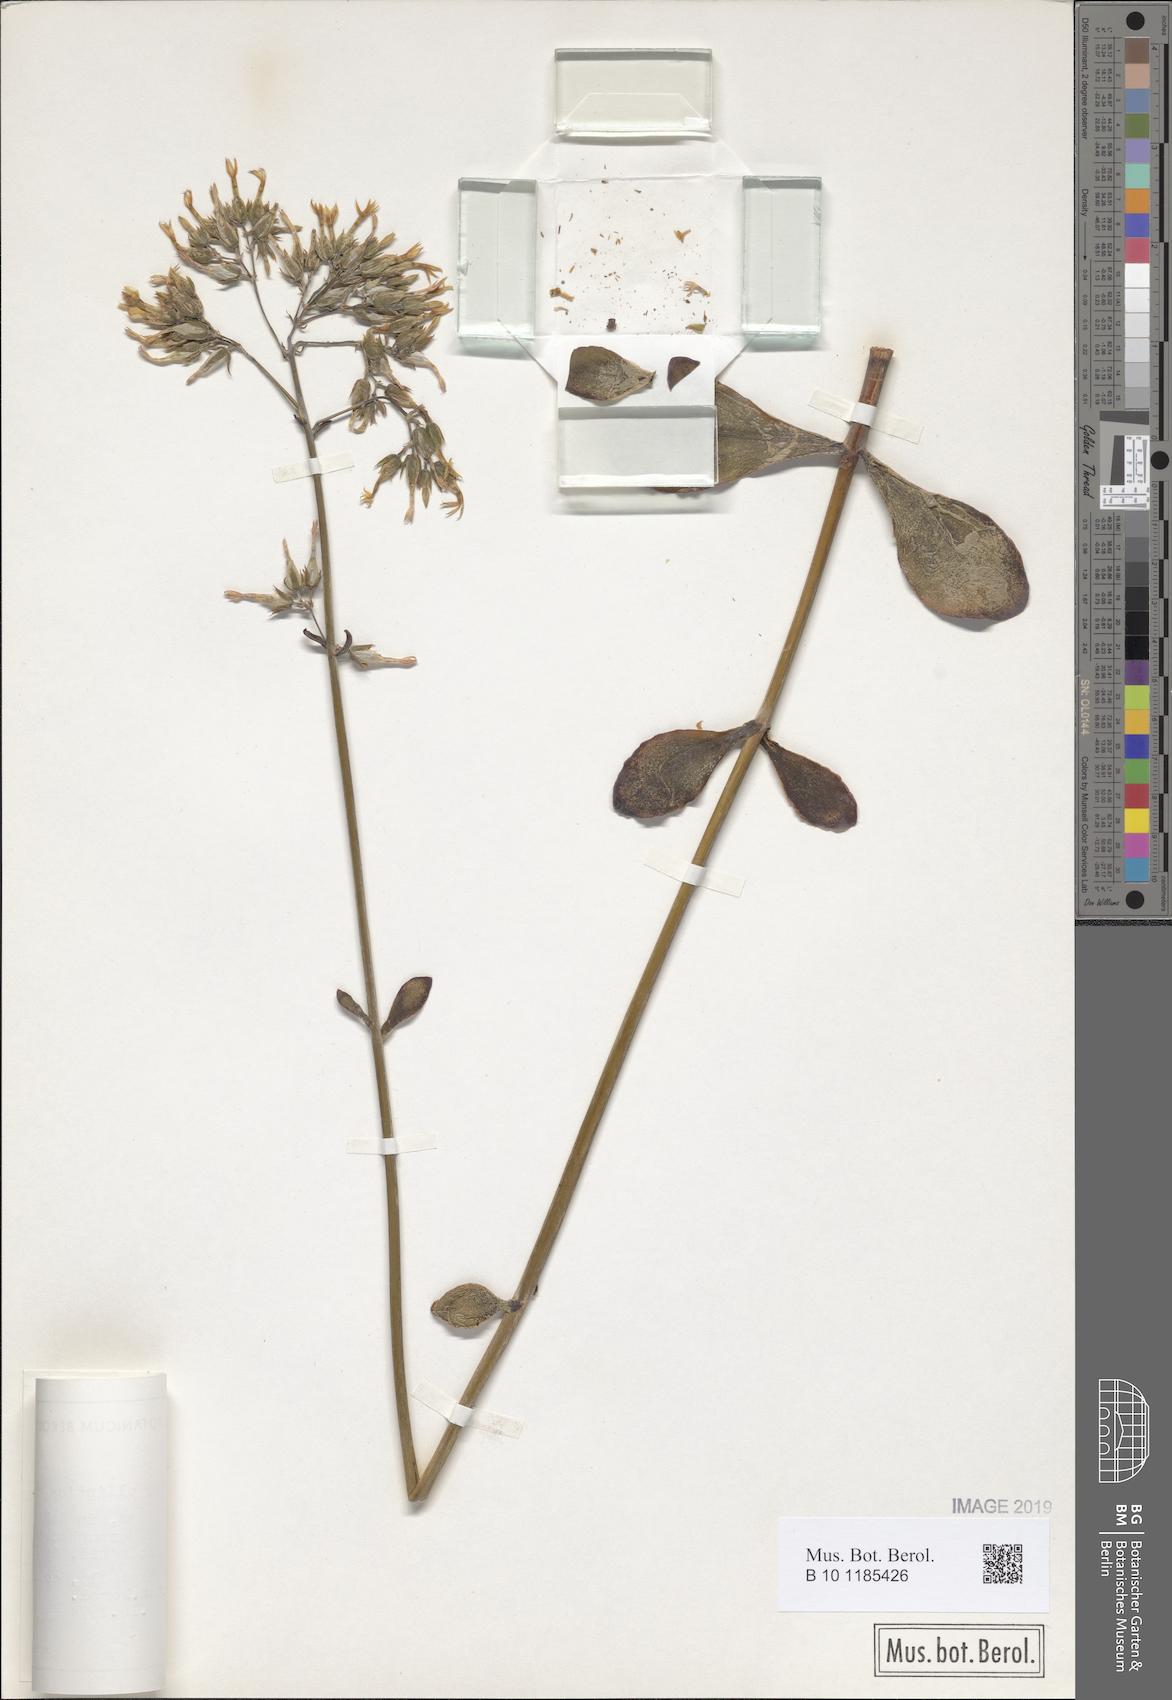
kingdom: Plantae
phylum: Tracheophyta
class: Magnoliopsida
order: Saxifragales
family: Crassulaceae
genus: Kalanchoe
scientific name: Kalanchoe glaucescens
